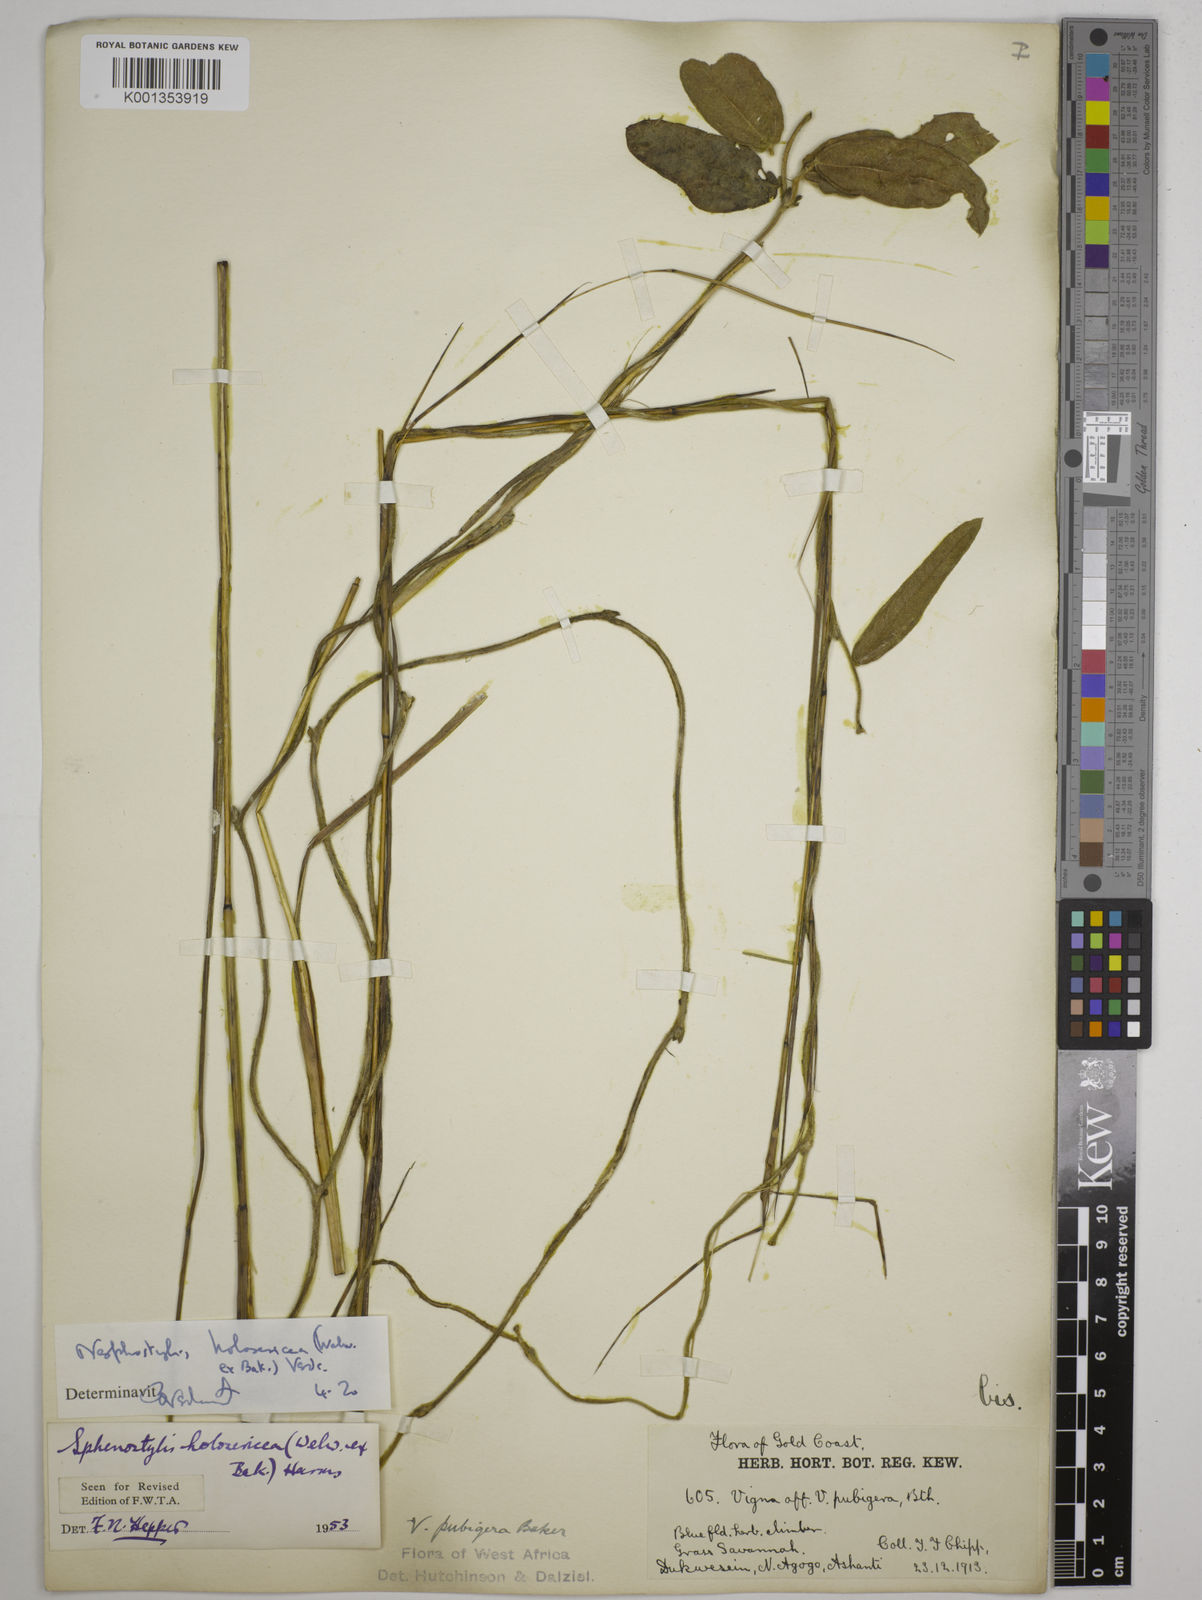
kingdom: Plantae
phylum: Tracheophyta
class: Magnoliopsida
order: Fabales
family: Fabaceae
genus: Nesphostylis
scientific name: Nesphostylis holosericea
